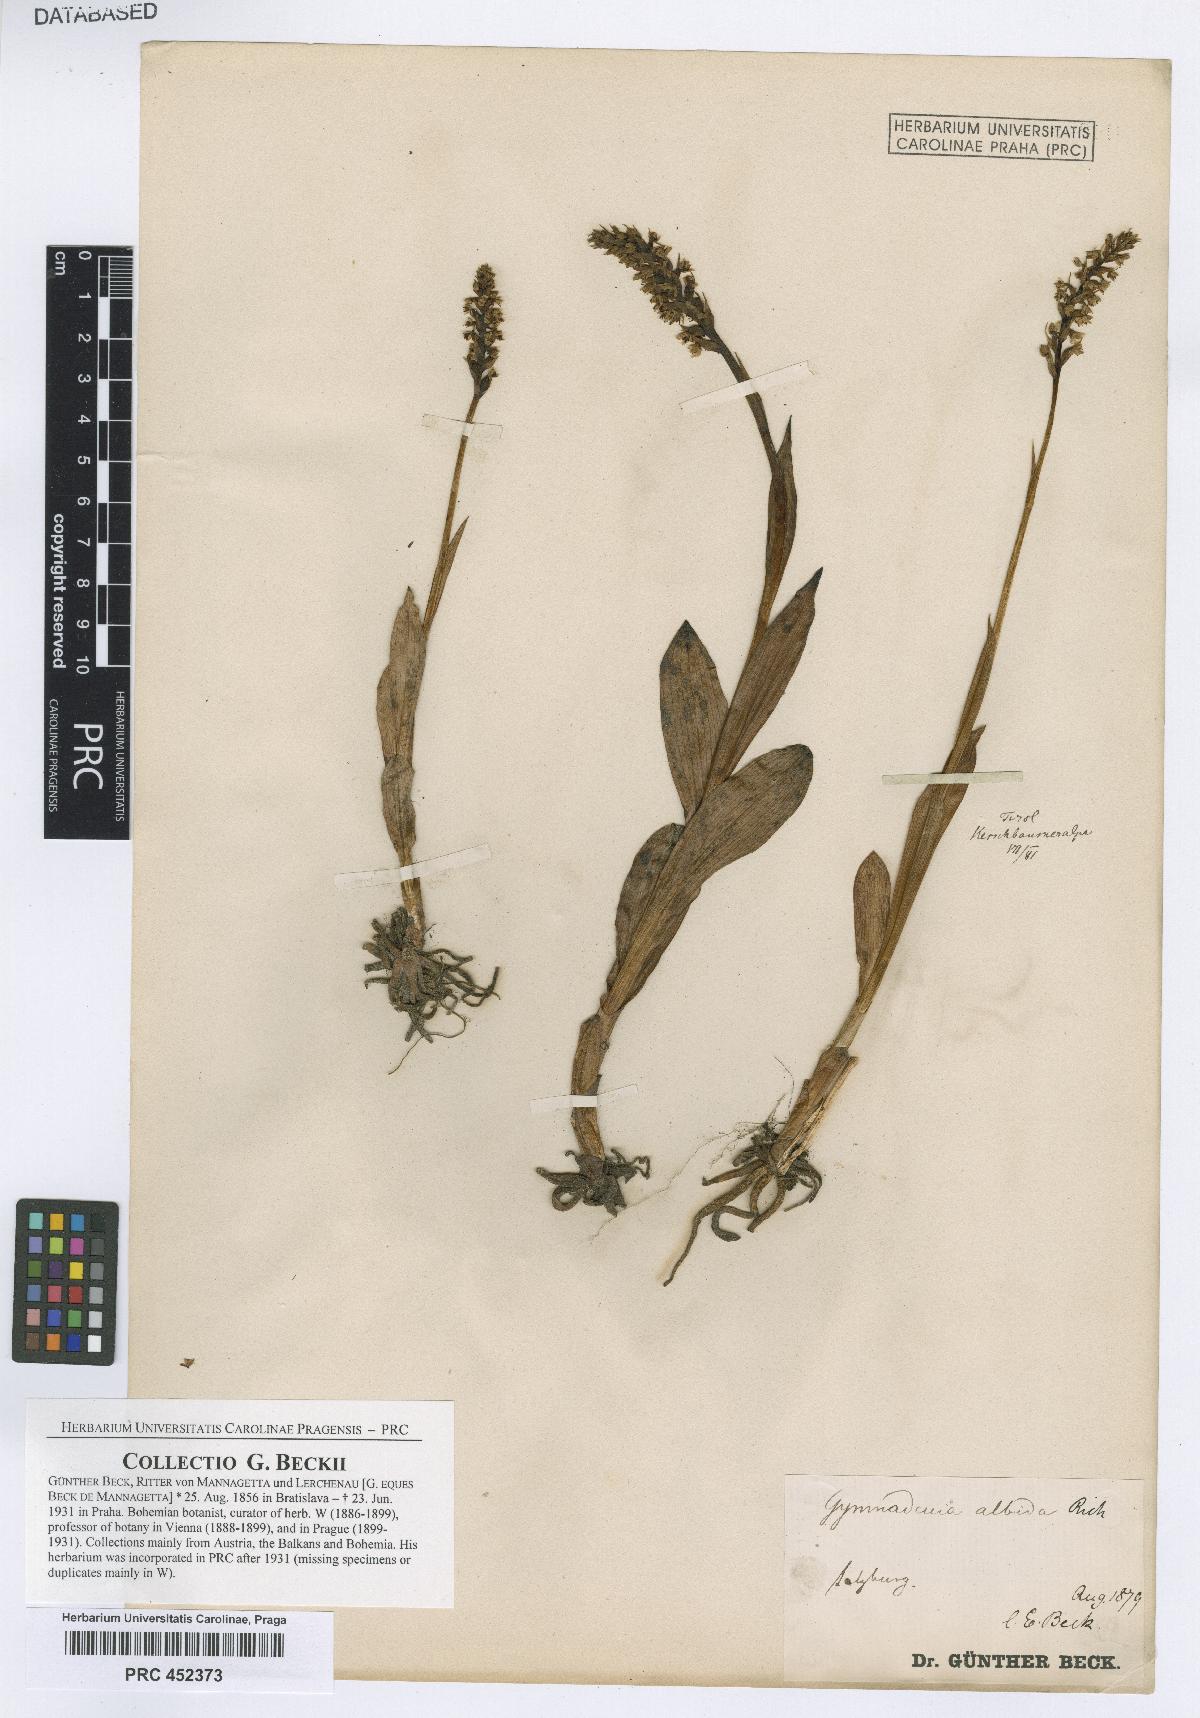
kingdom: Plantae
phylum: Tracheophyta
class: Liliopsida
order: Asparagales
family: Orchidaceae
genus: Pseudorchis
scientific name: Pseudorchis albida
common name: Small-white orchid
